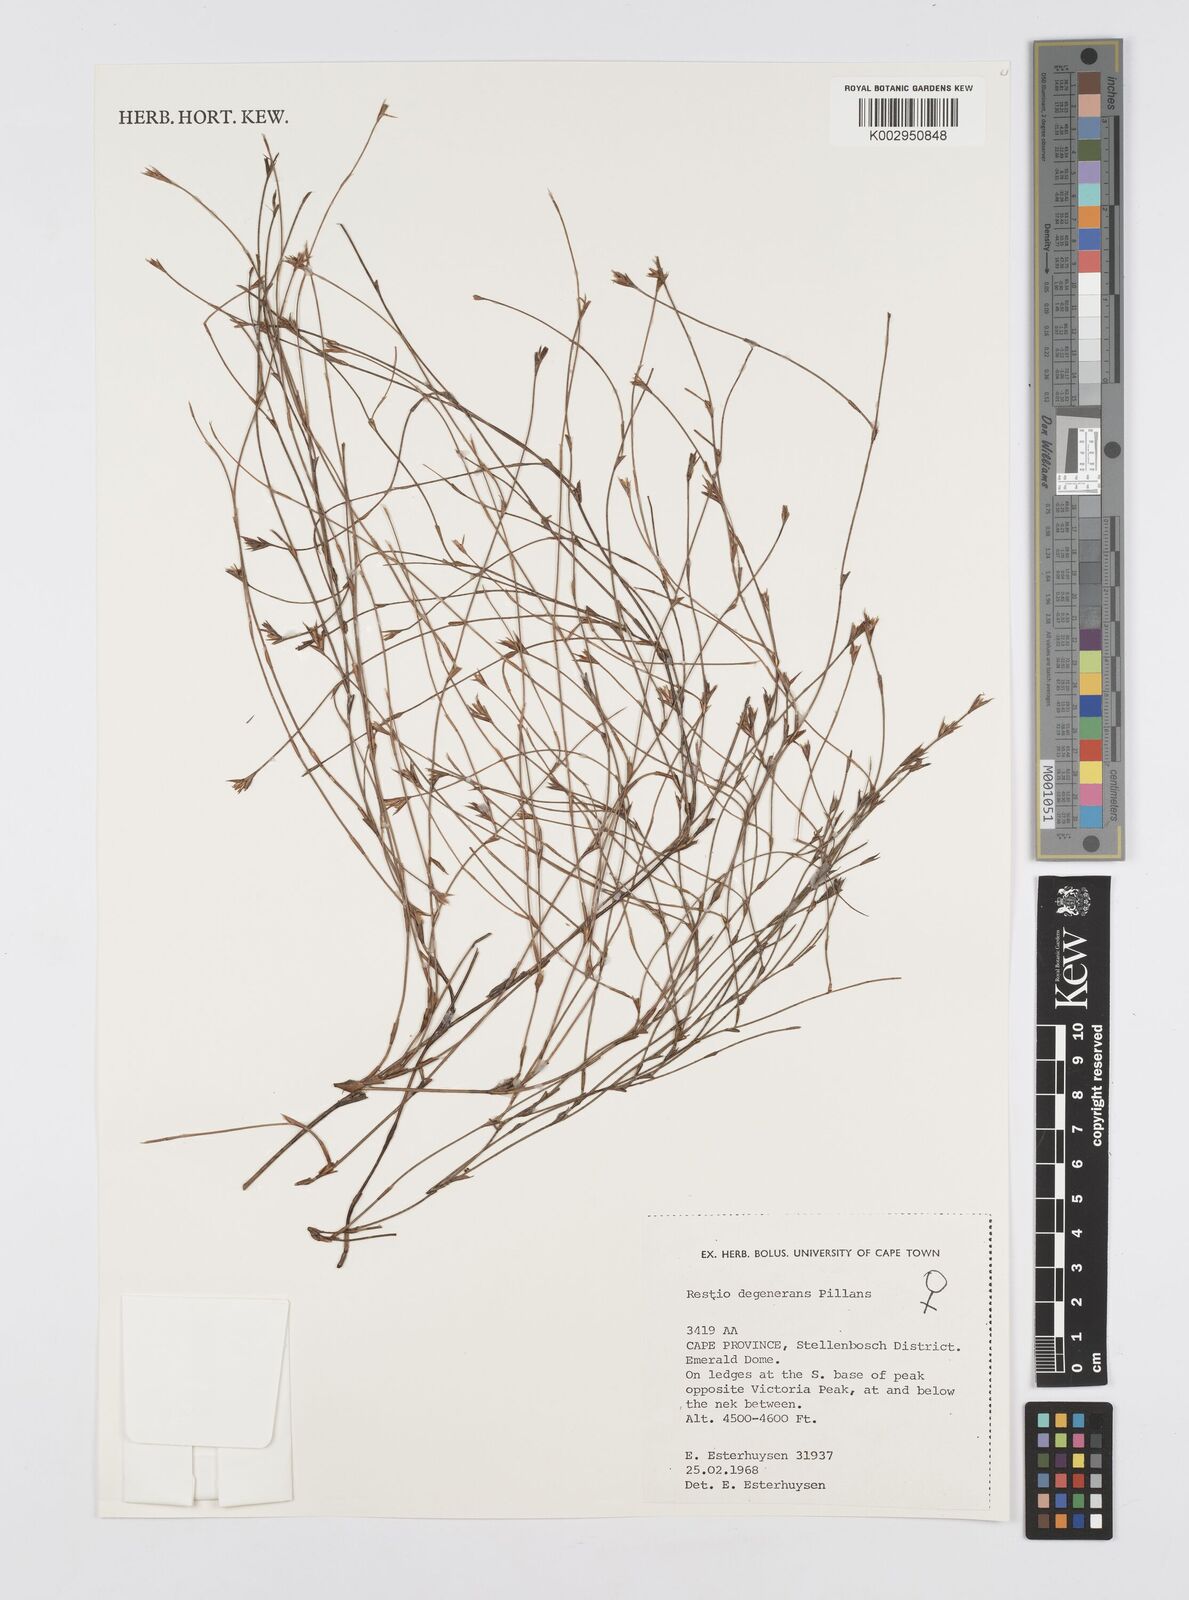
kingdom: Plantae
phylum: Tracheophyta
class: Liliopsida
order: Poales
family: Restionaceae
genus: Restio
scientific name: Restio degenerans
